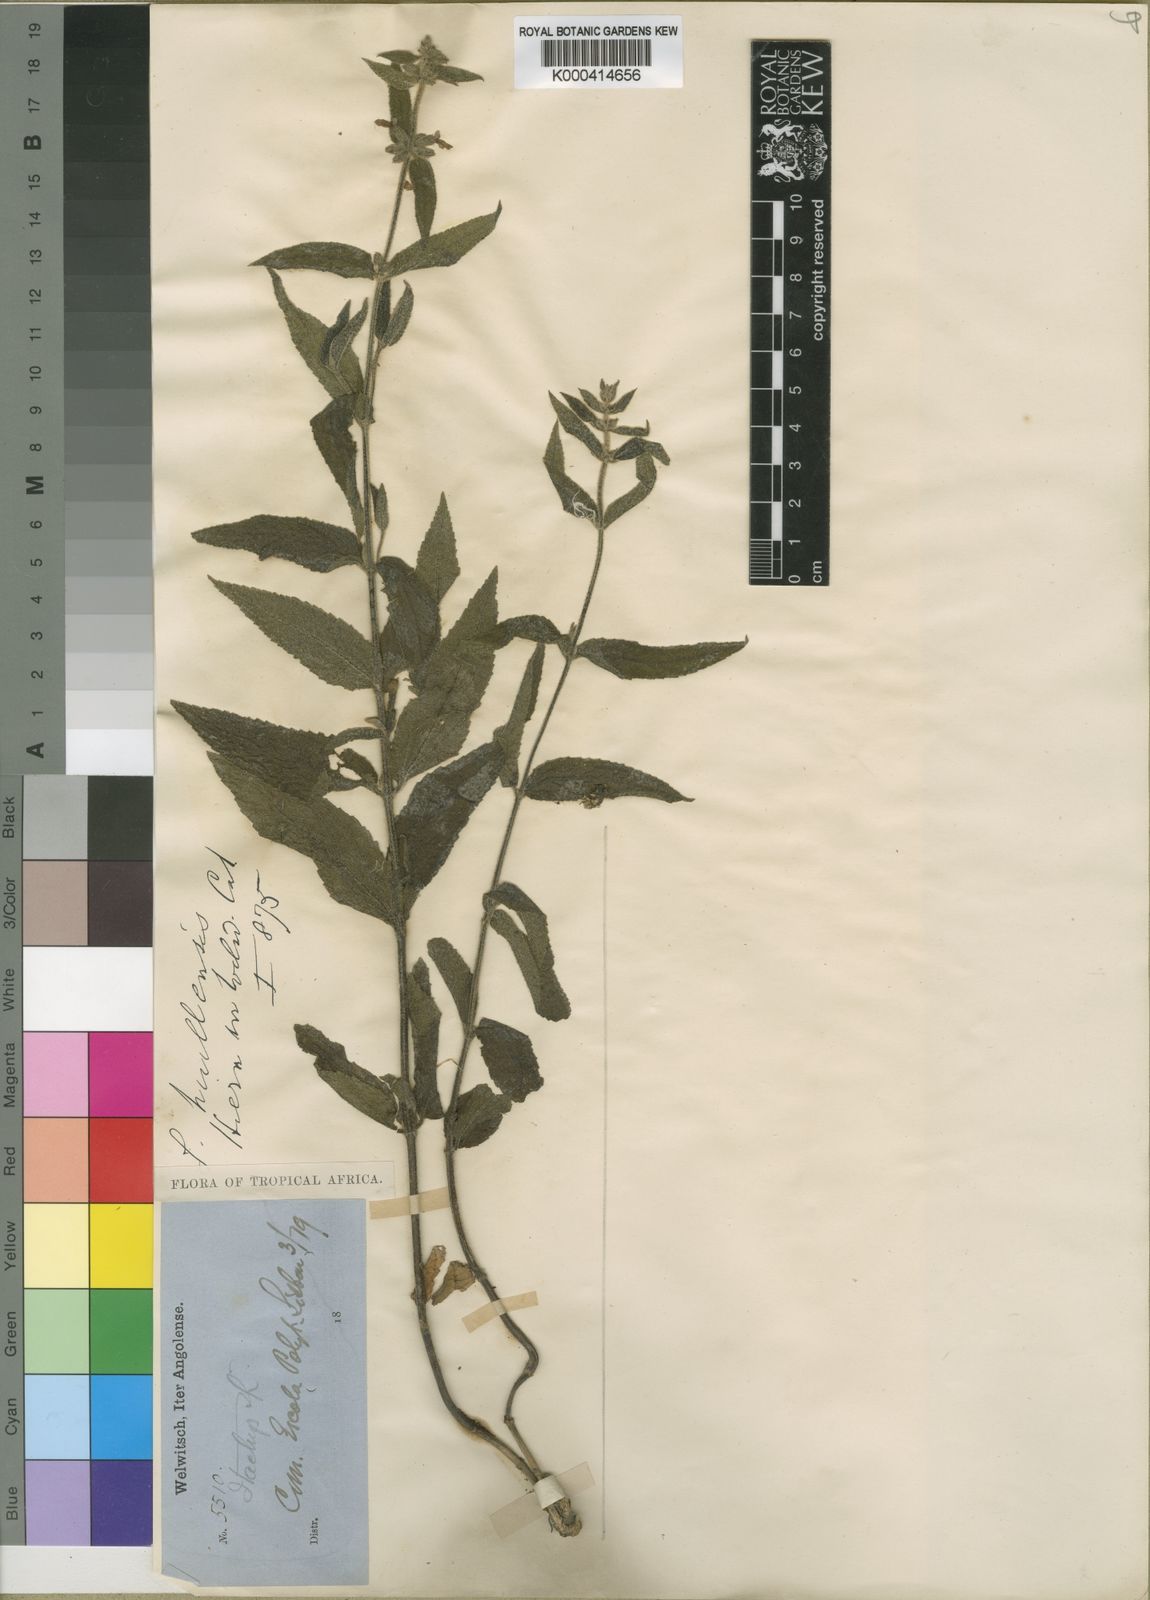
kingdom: Plantae
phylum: Tracheophyta
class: Magnoliopsida
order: Lamiales
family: Lamiaceae
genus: Stachys
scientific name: Stachys andongensis
